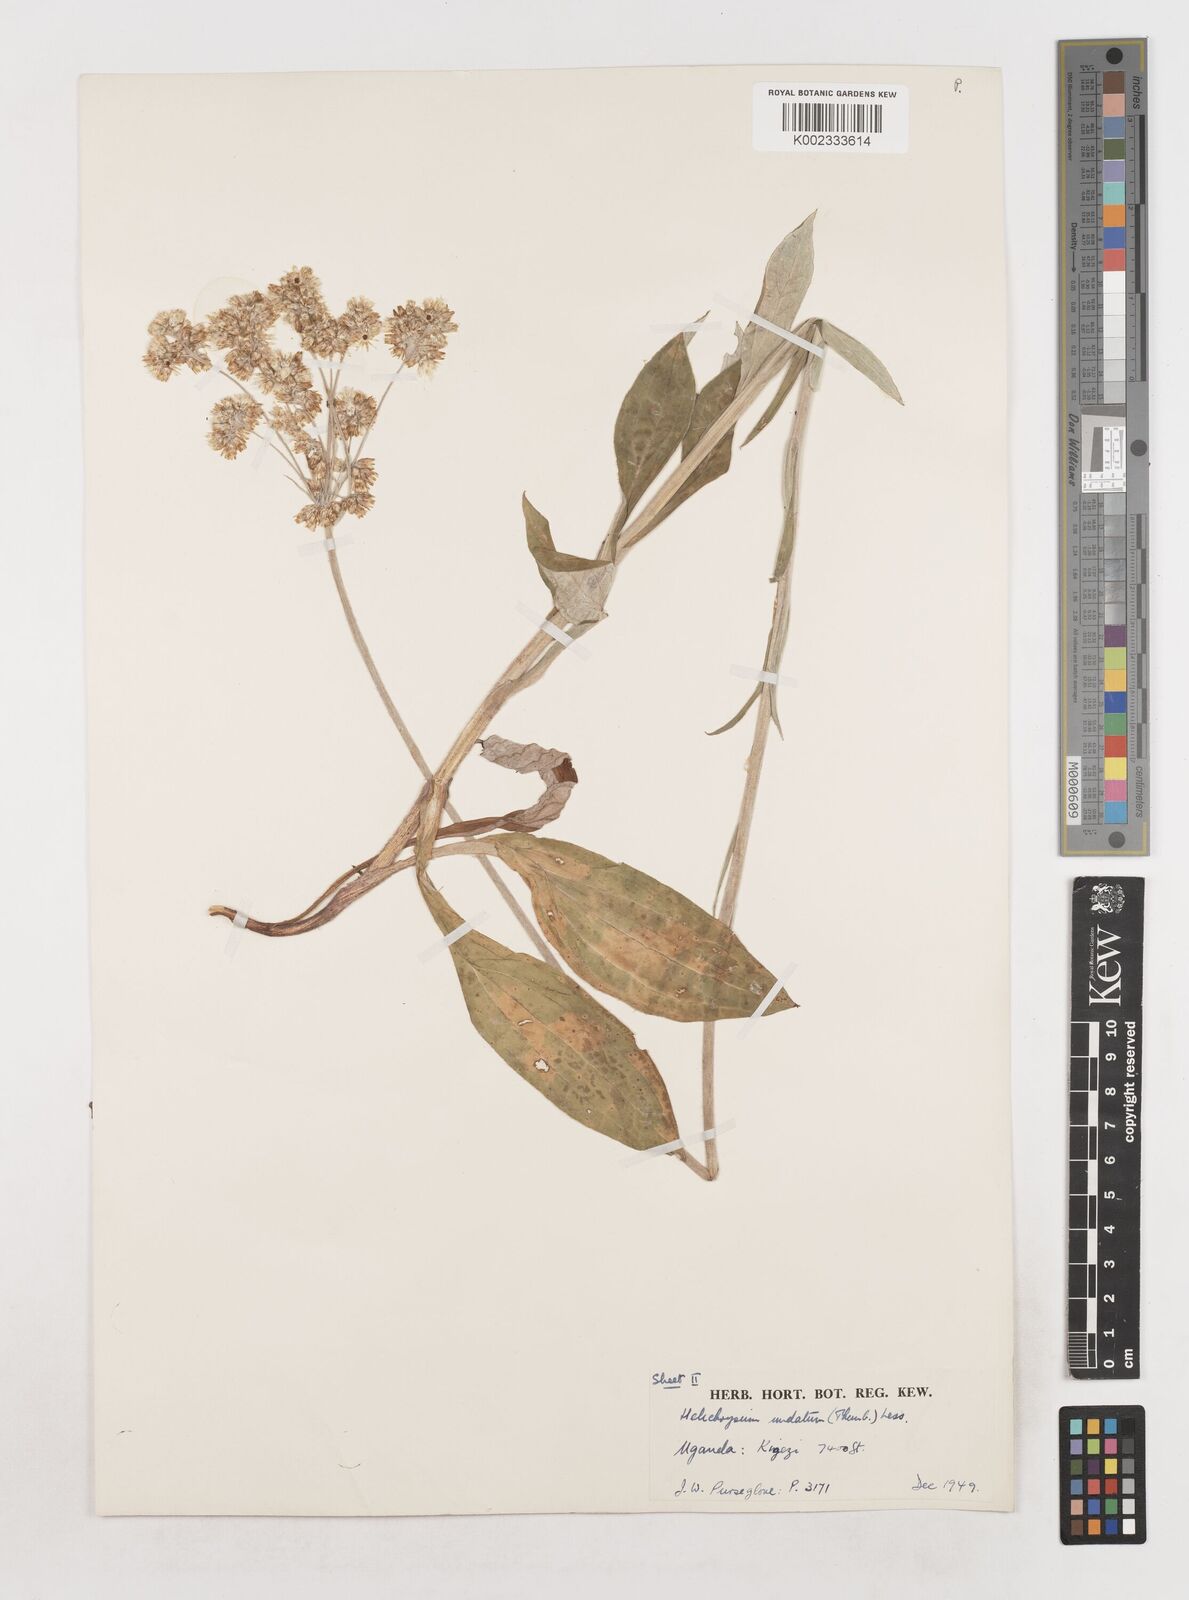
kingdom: Plantae
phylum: Tracheophyta
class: Magnoliopsida
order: Asterales
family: Asteraceae
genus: Helichrysum
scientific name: Helichrysum globosum
